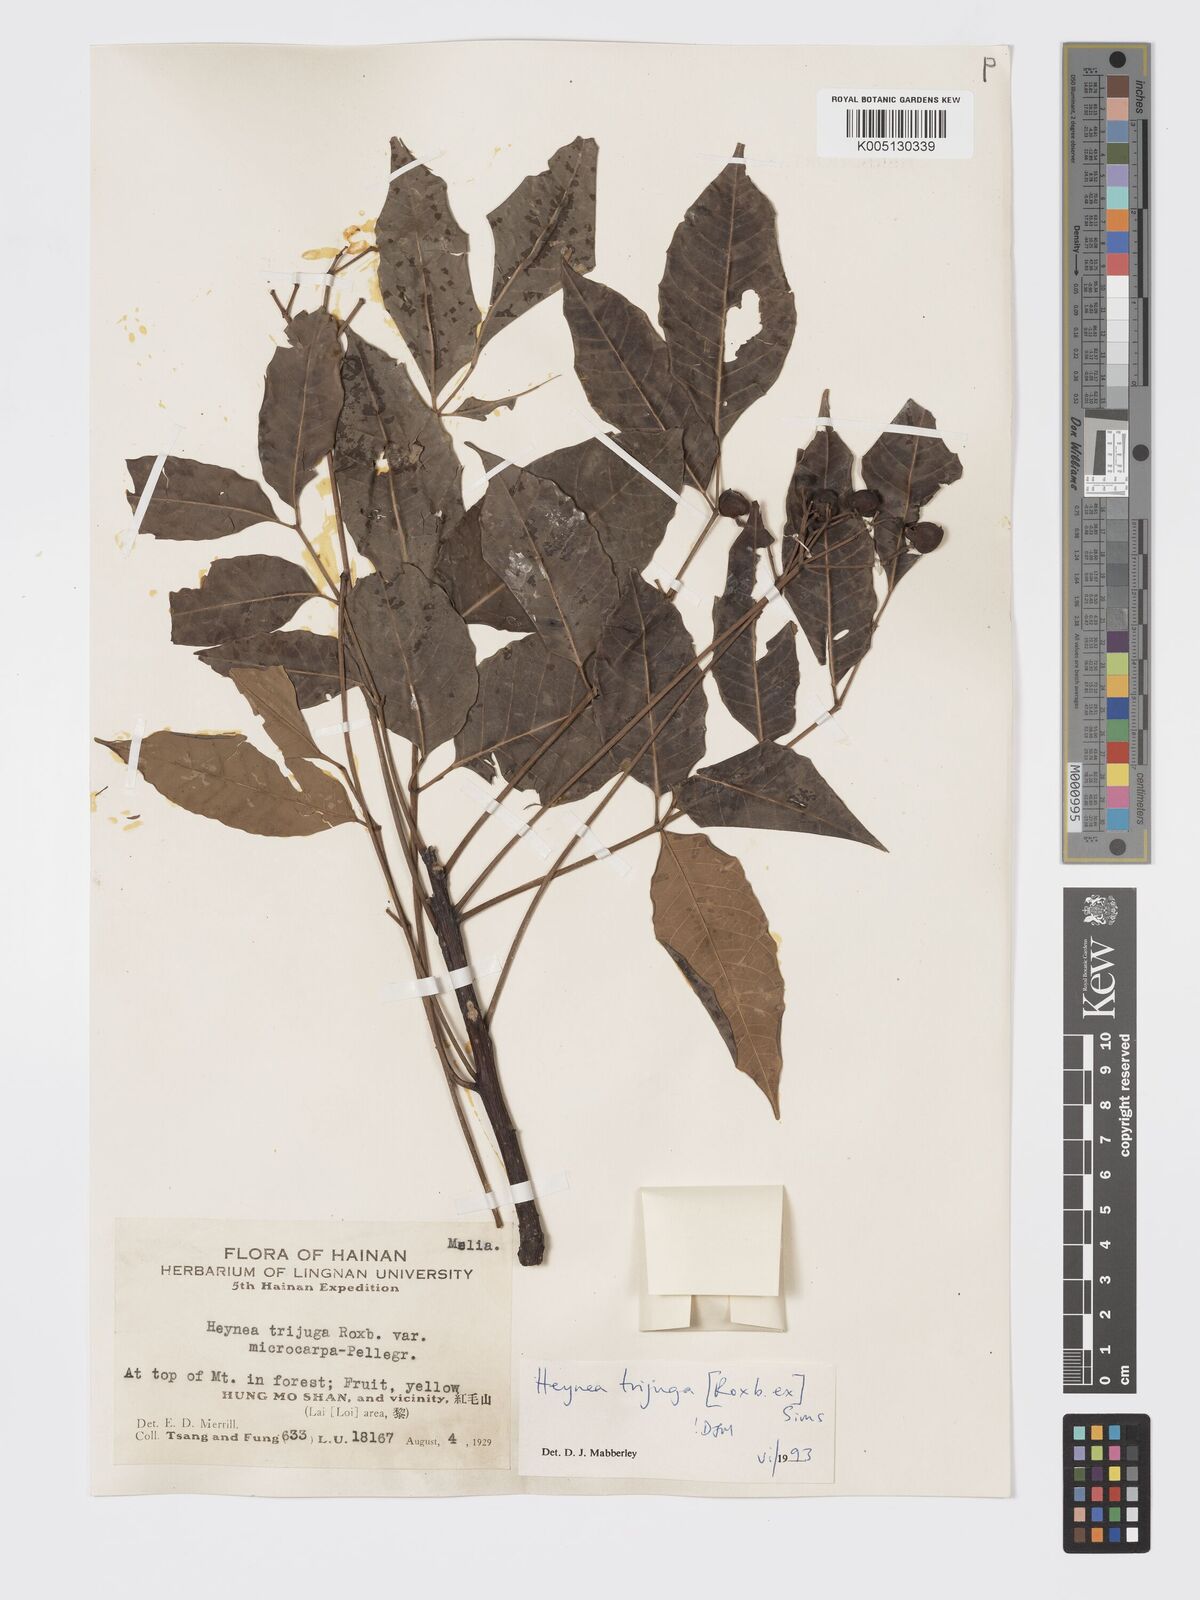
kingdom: Plantae
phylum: Tracheophyta
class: Magnoliopsida
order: Sapindales
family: Meliaceae
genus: Heynea
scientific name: Heynea trijuga
